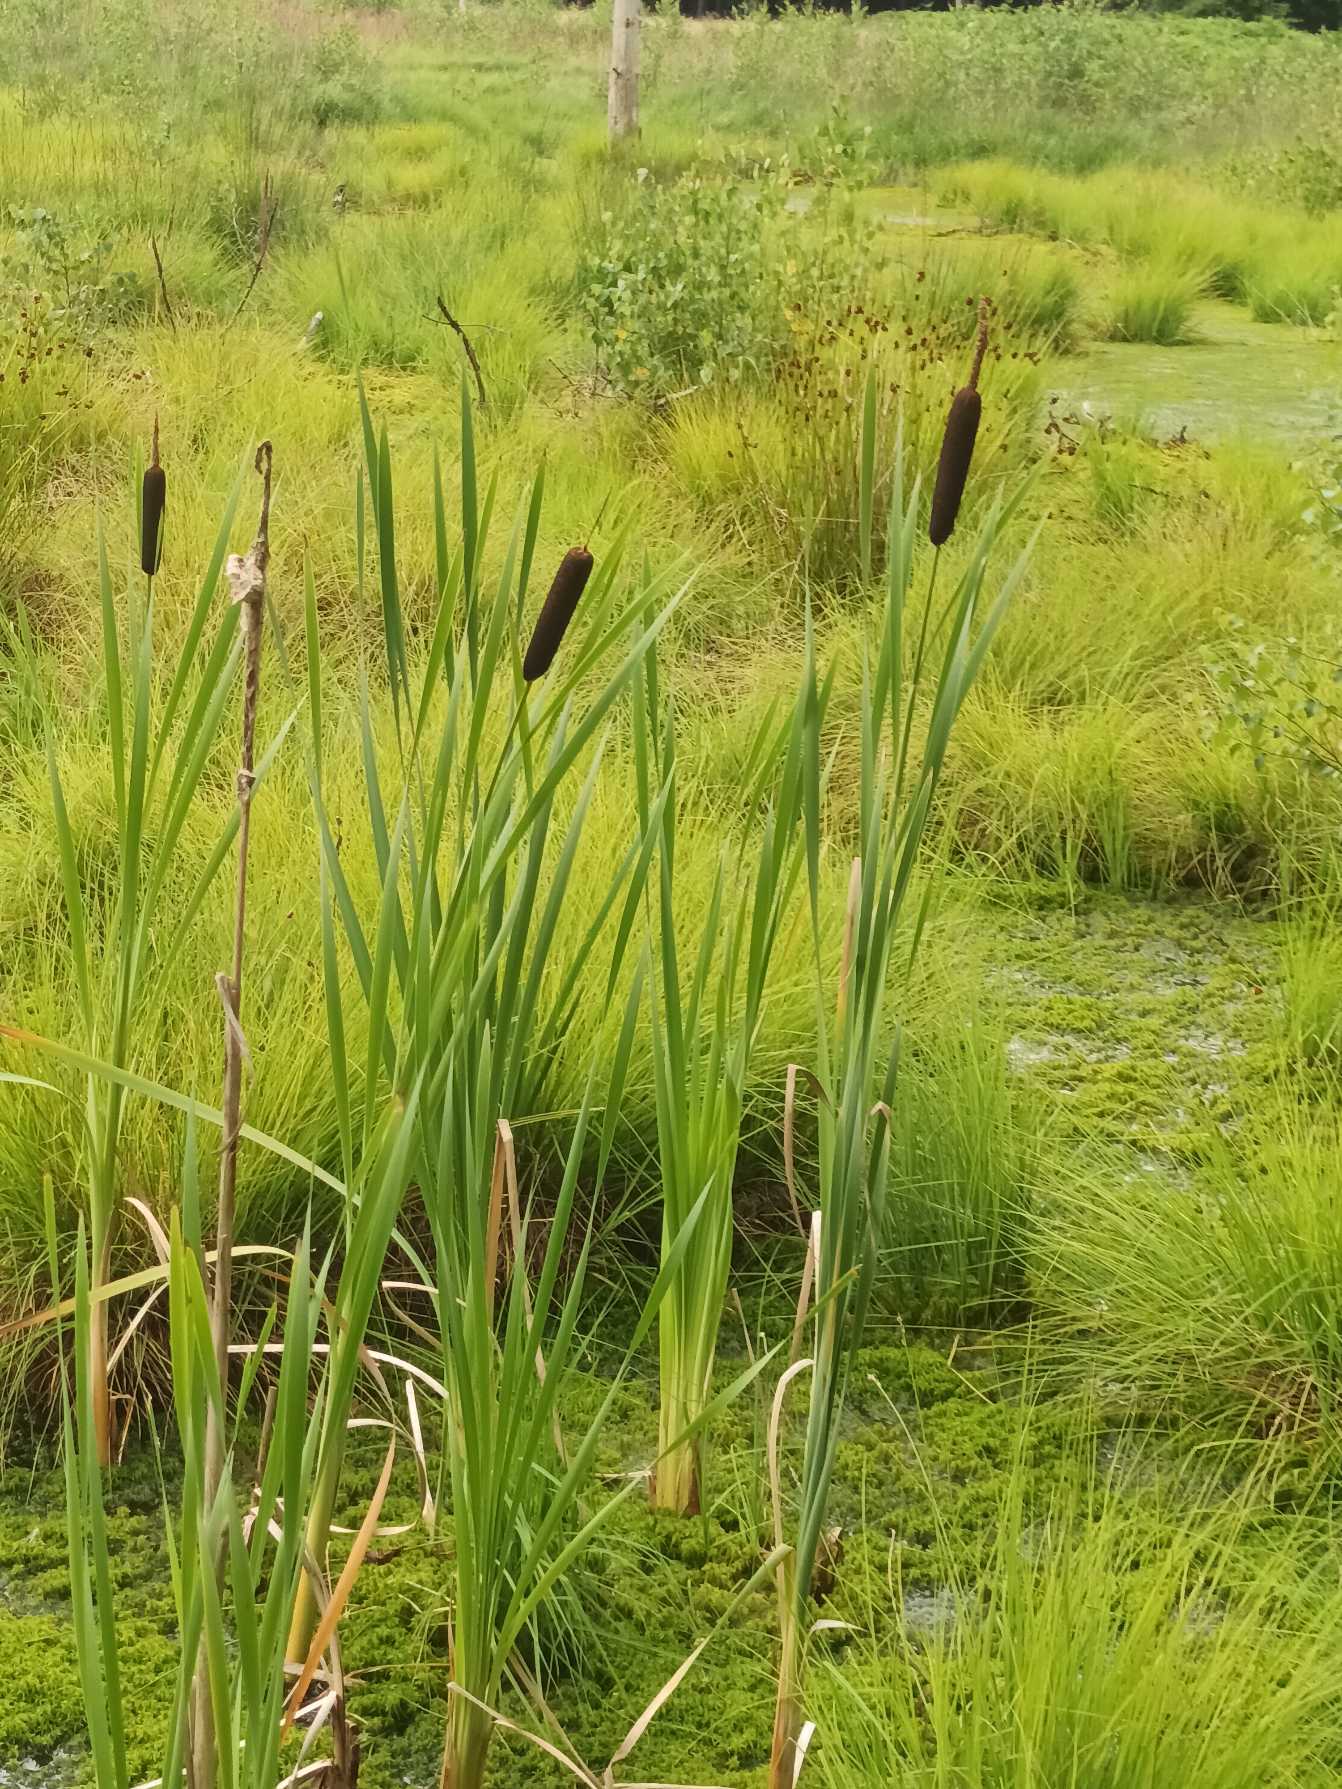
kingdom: Plantae
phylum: Tracheophyta
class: Liliopsida
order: Poales
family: Typhaceae
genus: Typha
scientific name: Typha latifolia
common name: Bredbladet dunhammer
